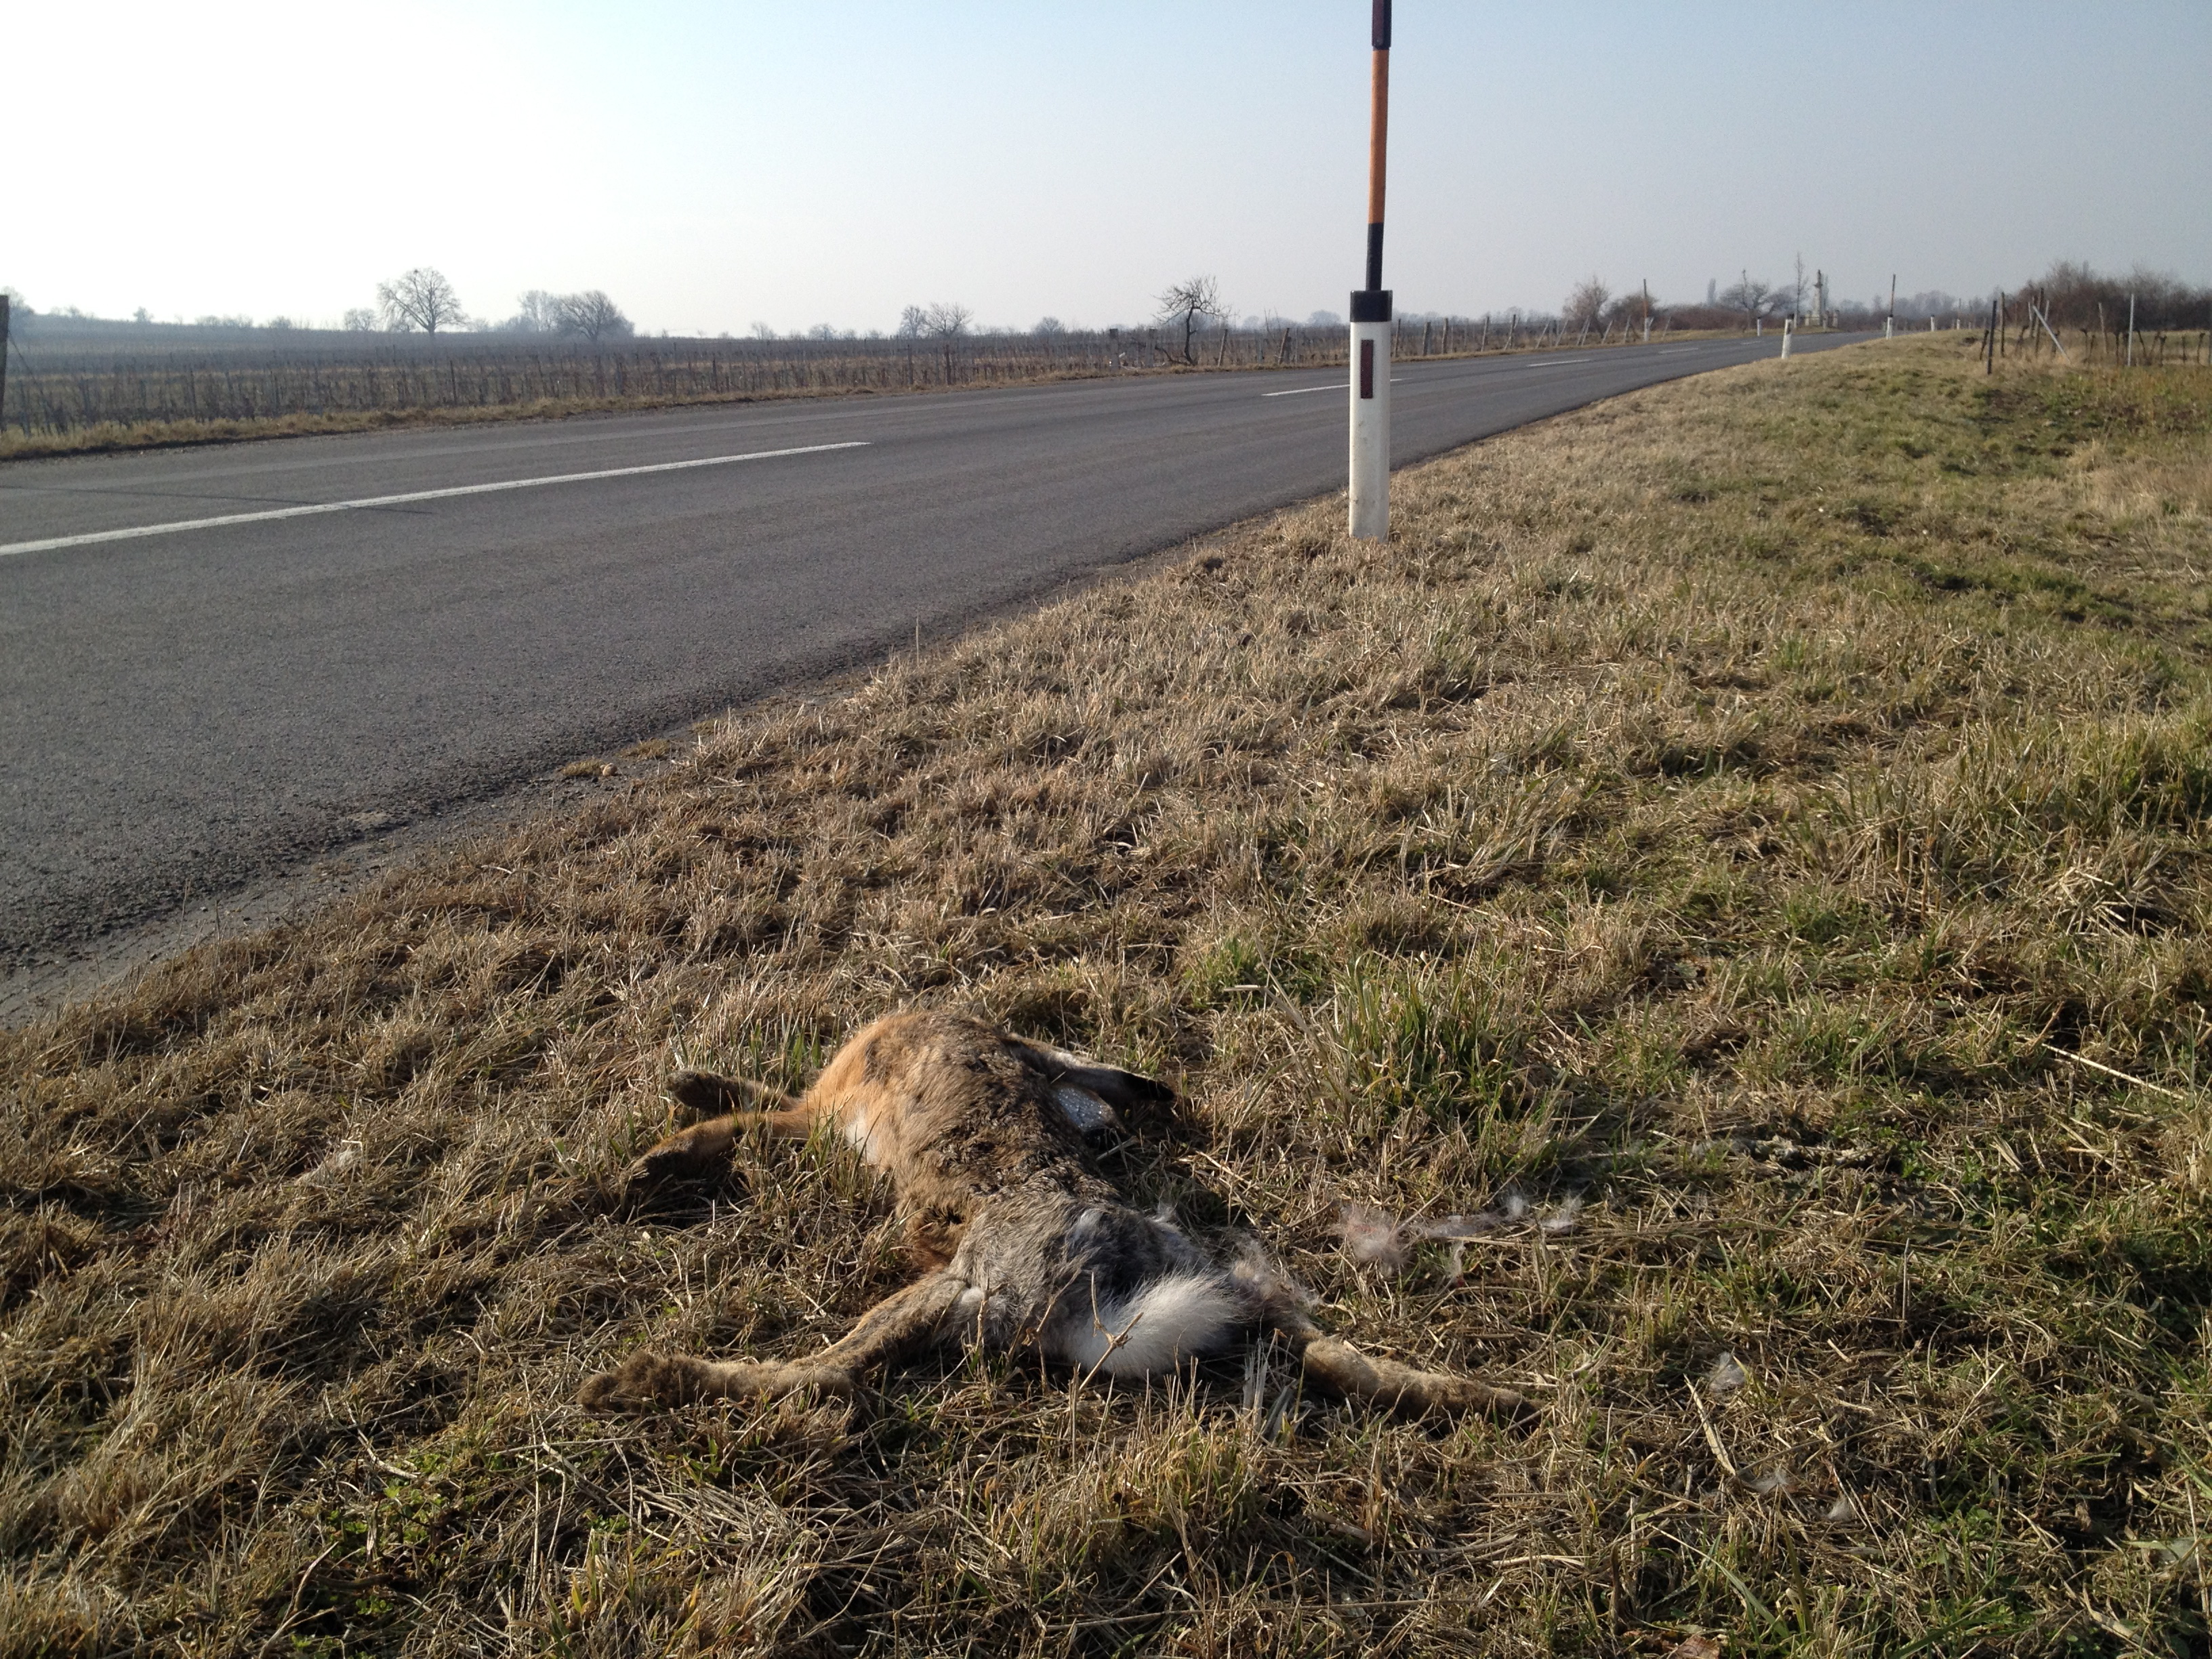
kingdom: Animalia
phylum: Chordata
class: Mammalia
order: Lagomorpha
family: Leporidae
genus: Lepus
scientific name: Lepus europaeus
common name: European hare
